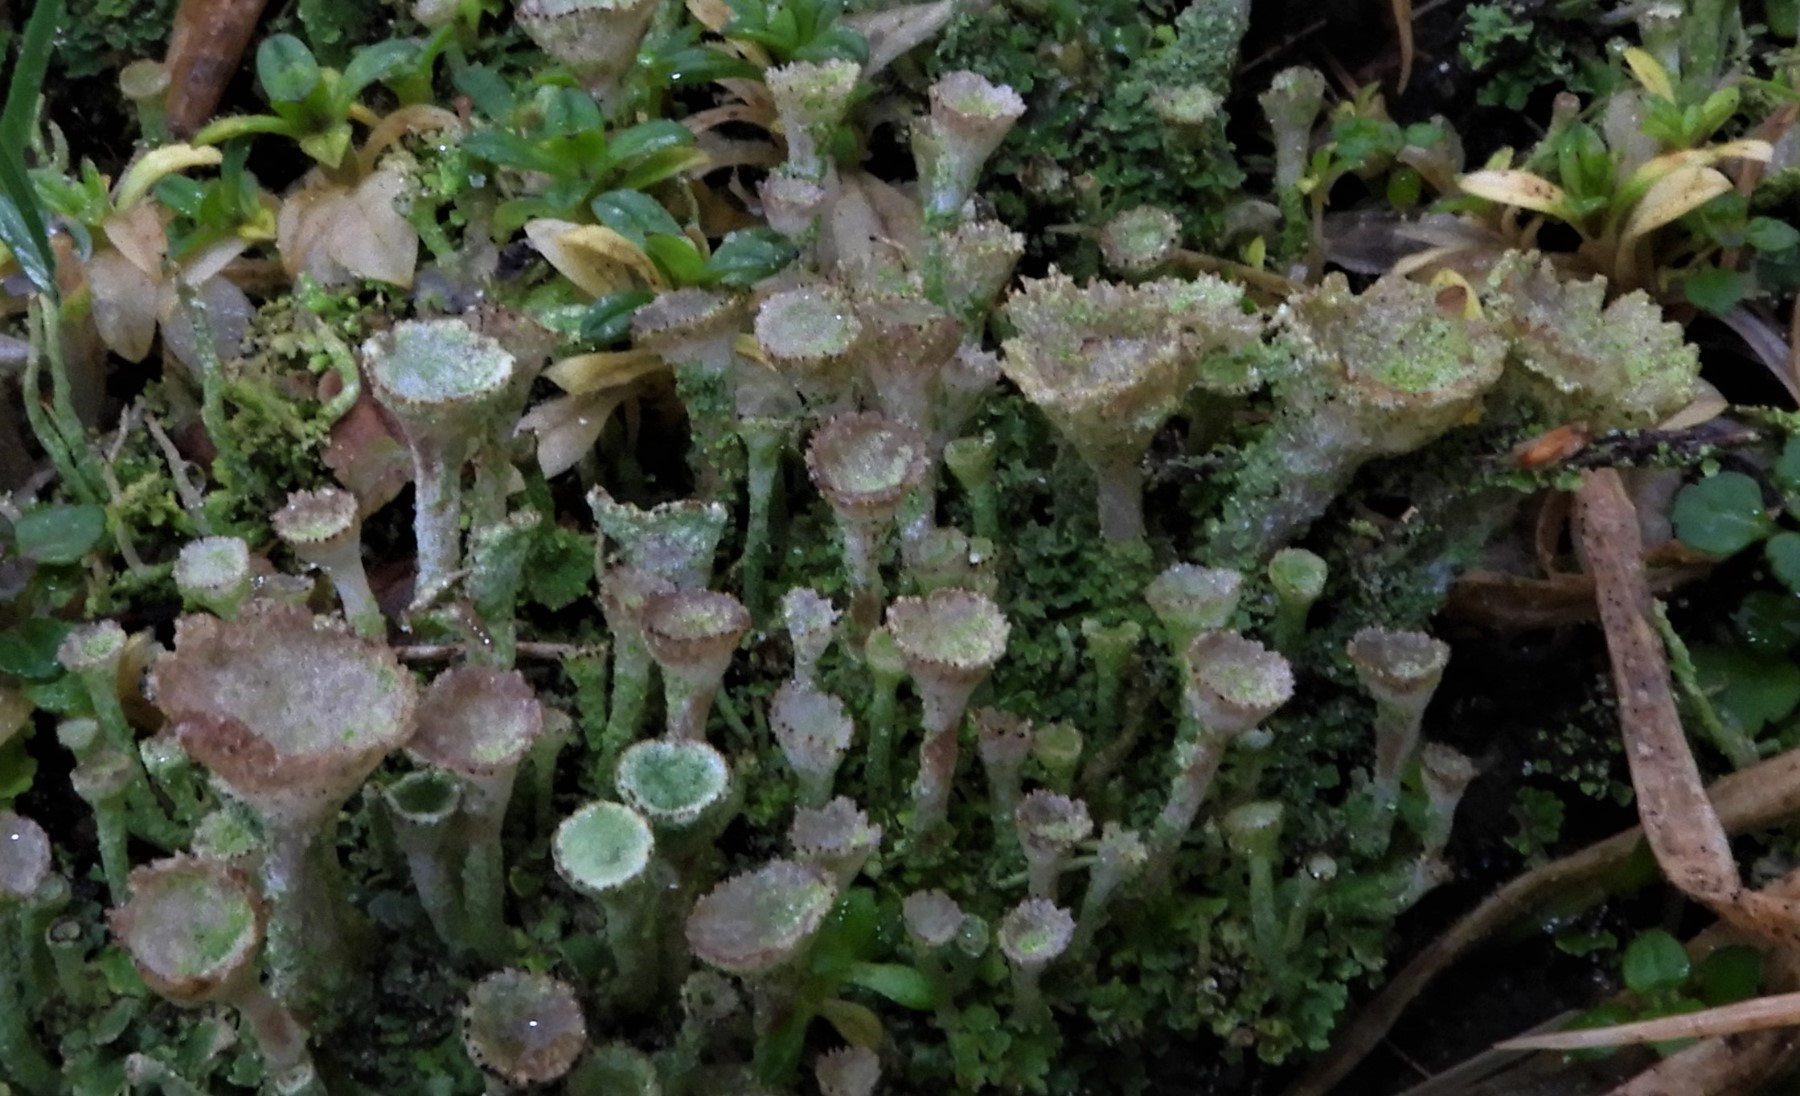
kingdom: Fungi
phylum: Ascomycota
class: Lecanoromycetes
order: Lecanorales
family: Cladoniaceae
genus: Cladonia
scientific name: Cladonia
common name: brungrøn bægerlav
